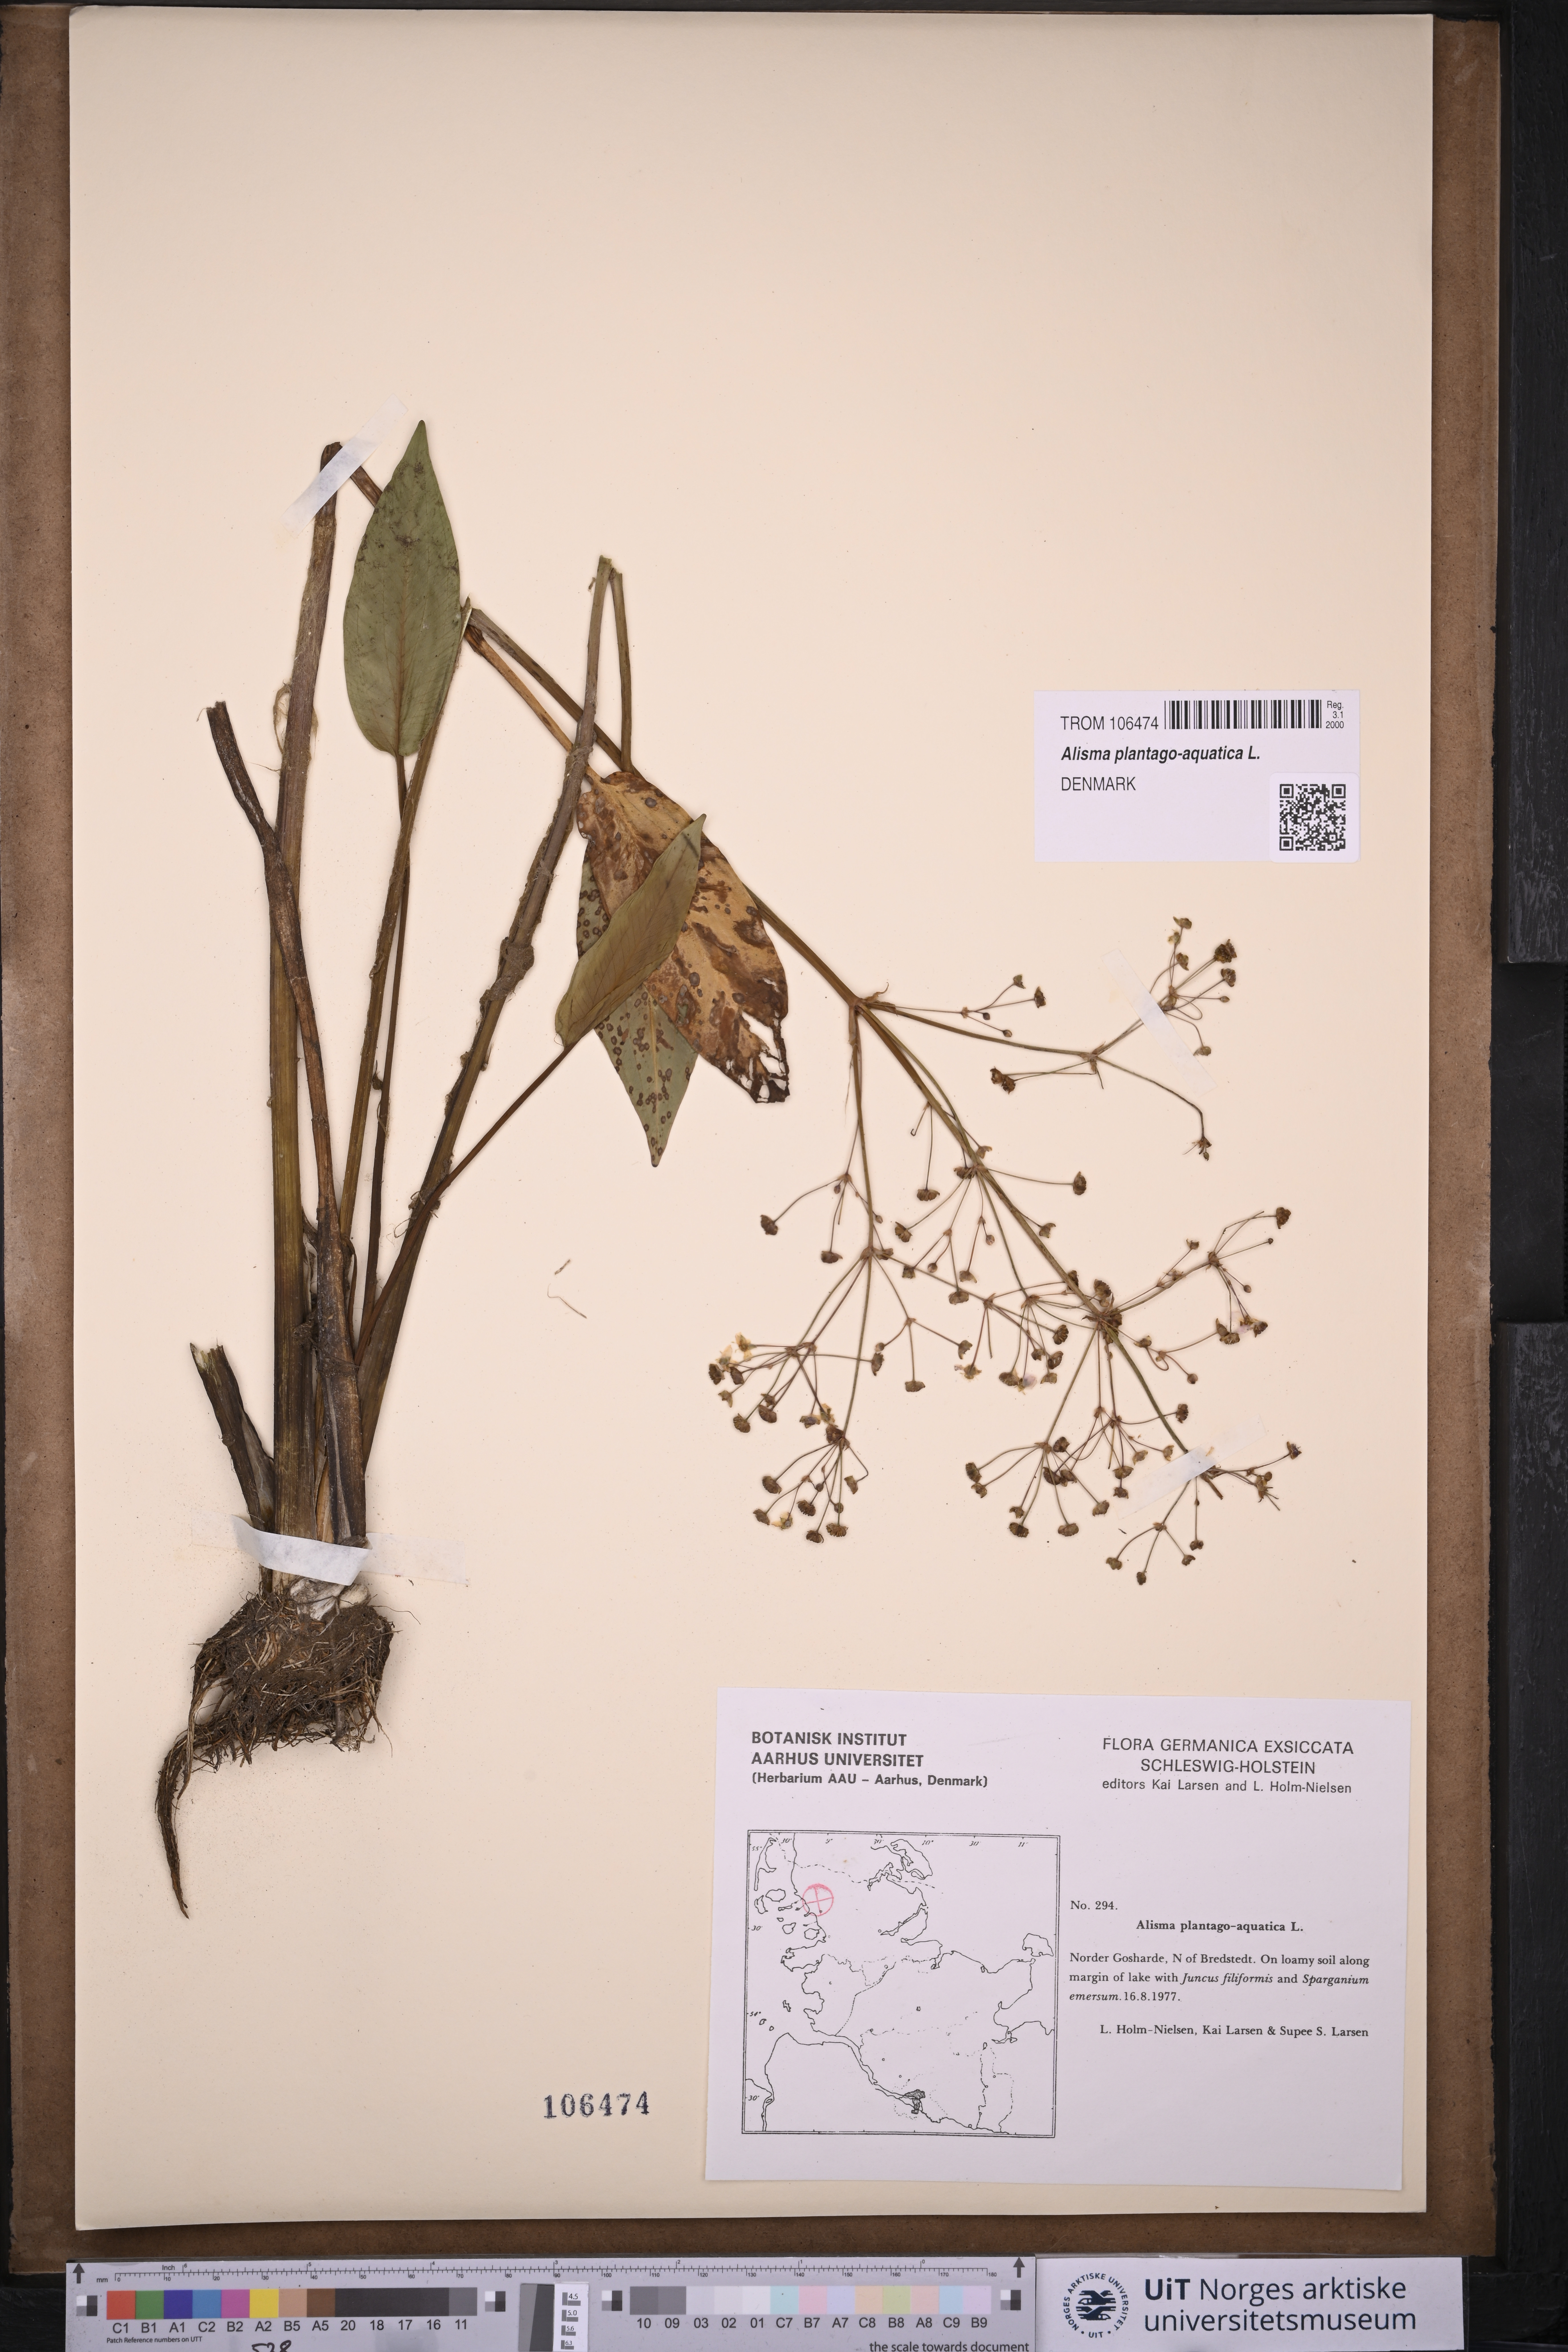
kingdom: Plantae
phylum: Tracheophyta
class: Liliopsida
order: Alismatales
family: Alismataceae
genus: Alisma
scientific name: Alisma plantago-aquatica
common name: Water-plantain
